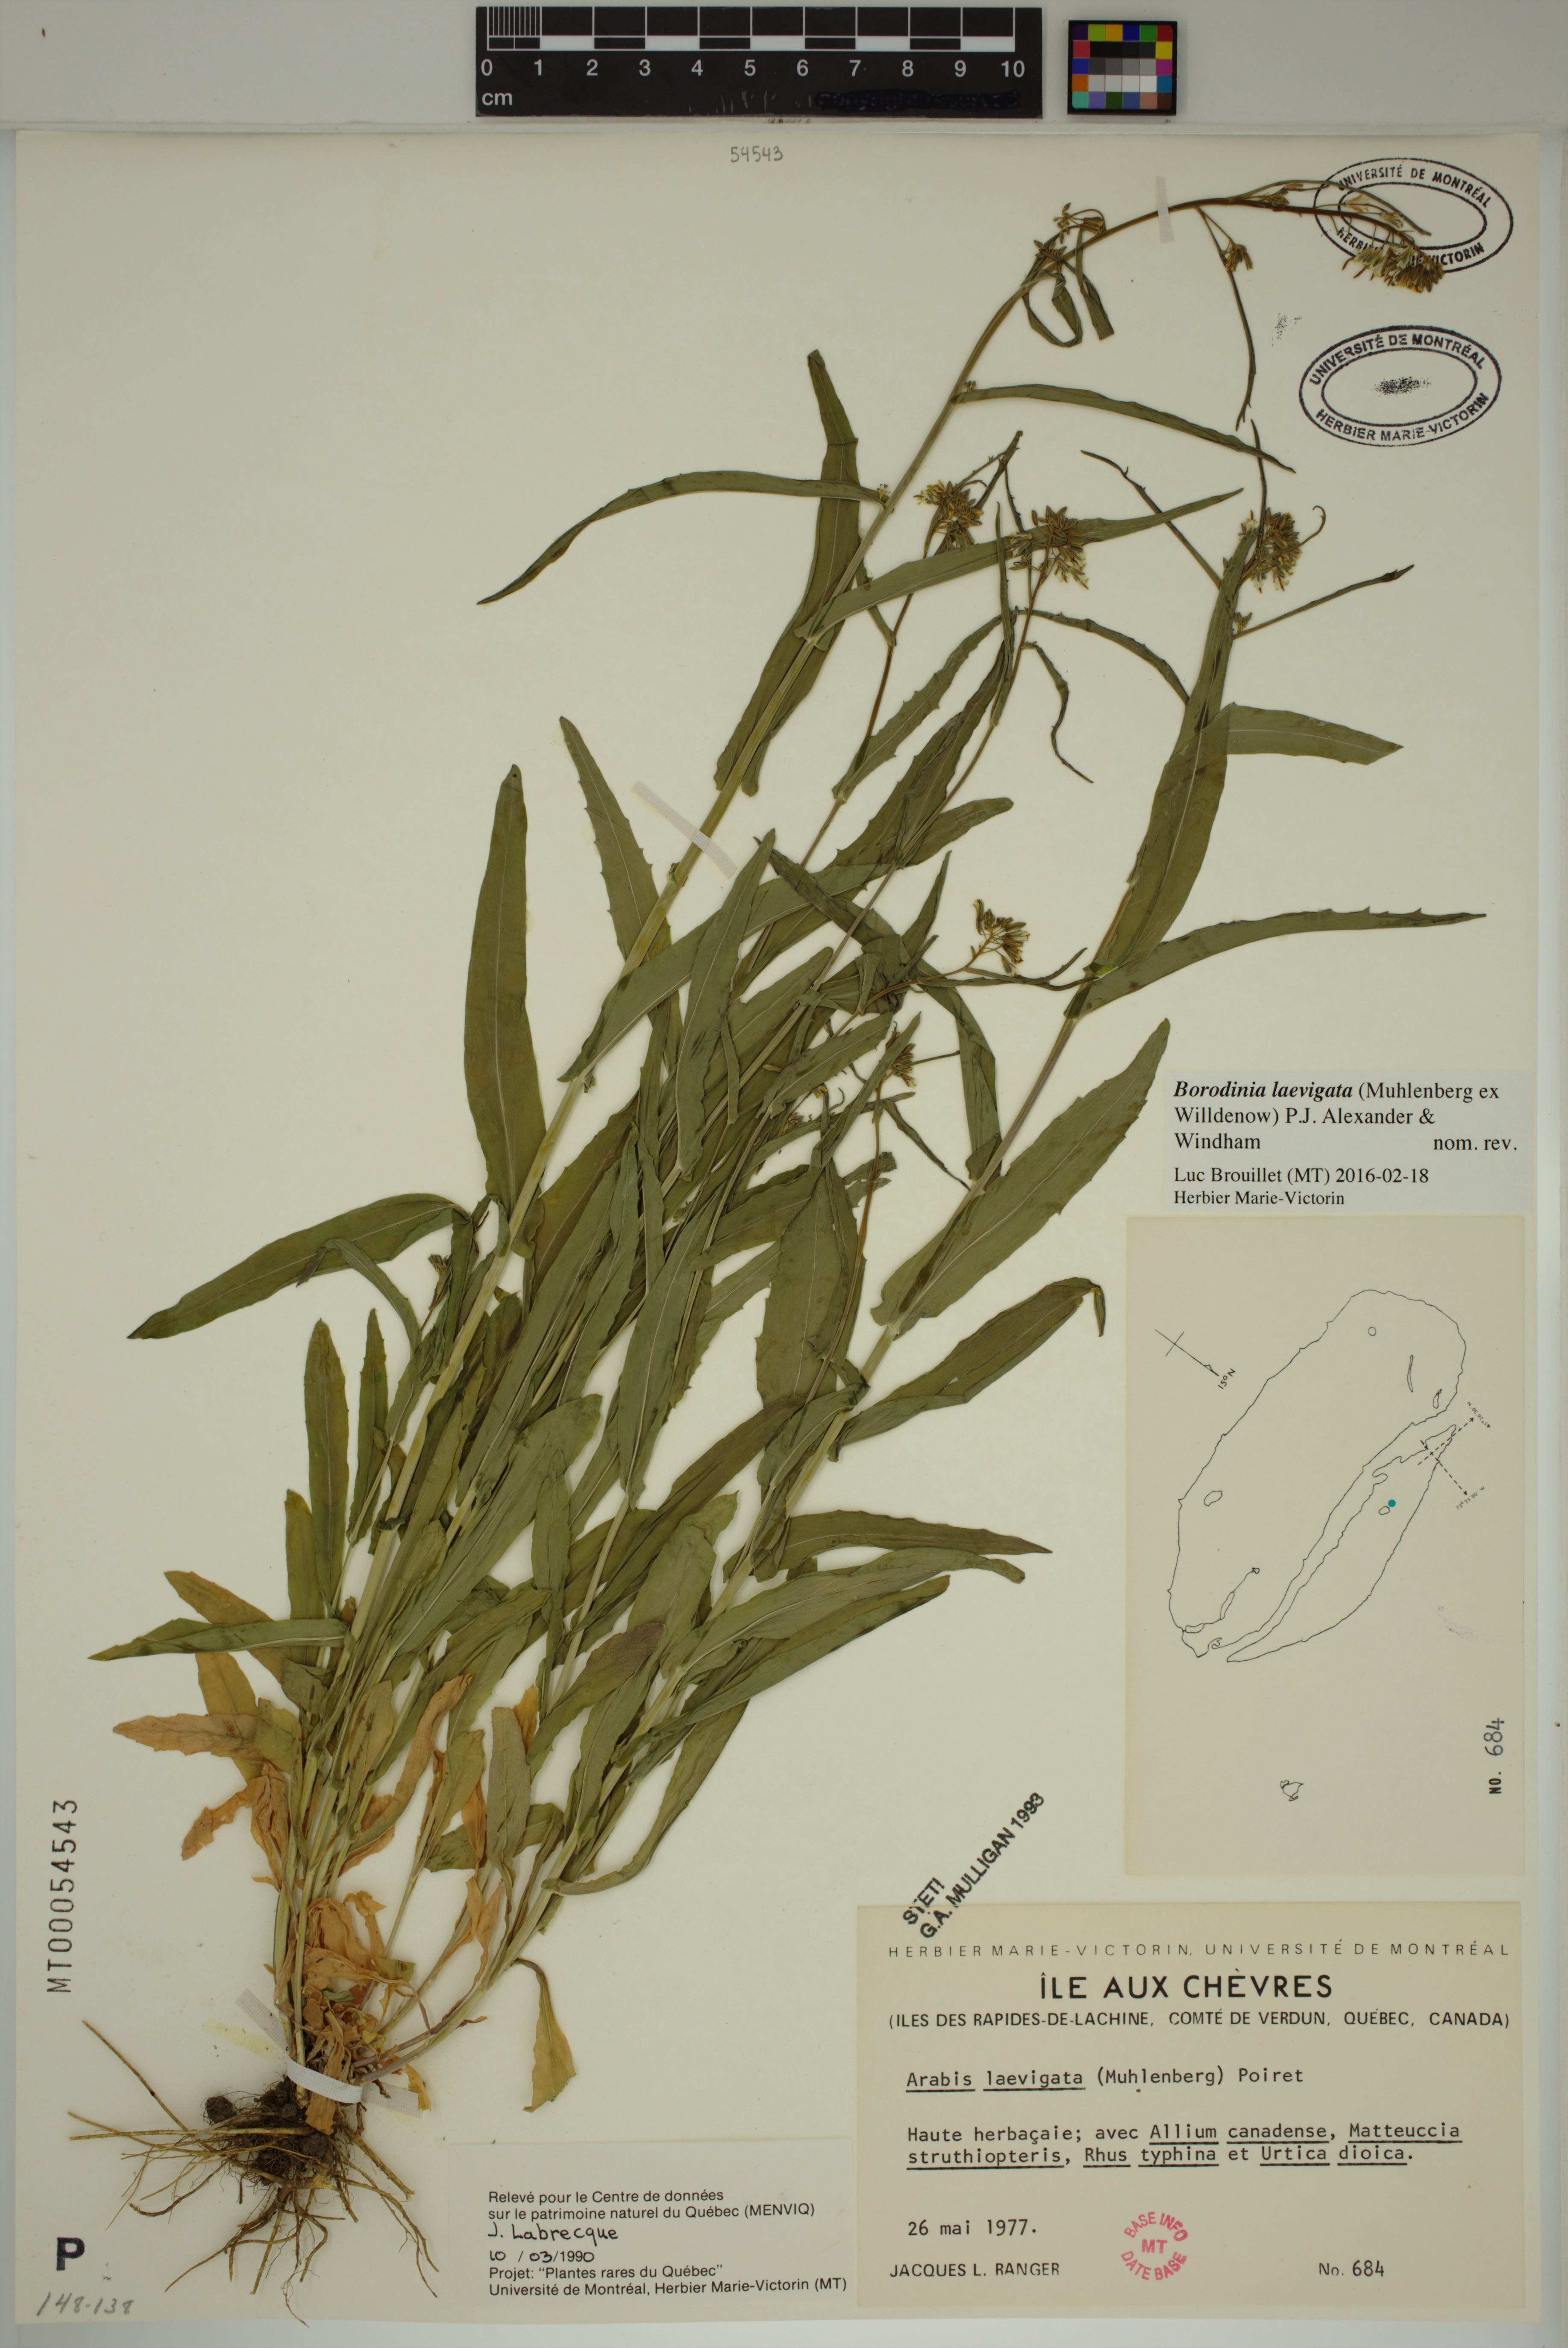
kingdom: Plantae
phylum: Tracheophyta
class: Magnoliopsida
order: Brassicales
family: Brassicaceae
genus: Borodinia
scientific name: Borodinia laevigata
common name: Smooth rockcress
